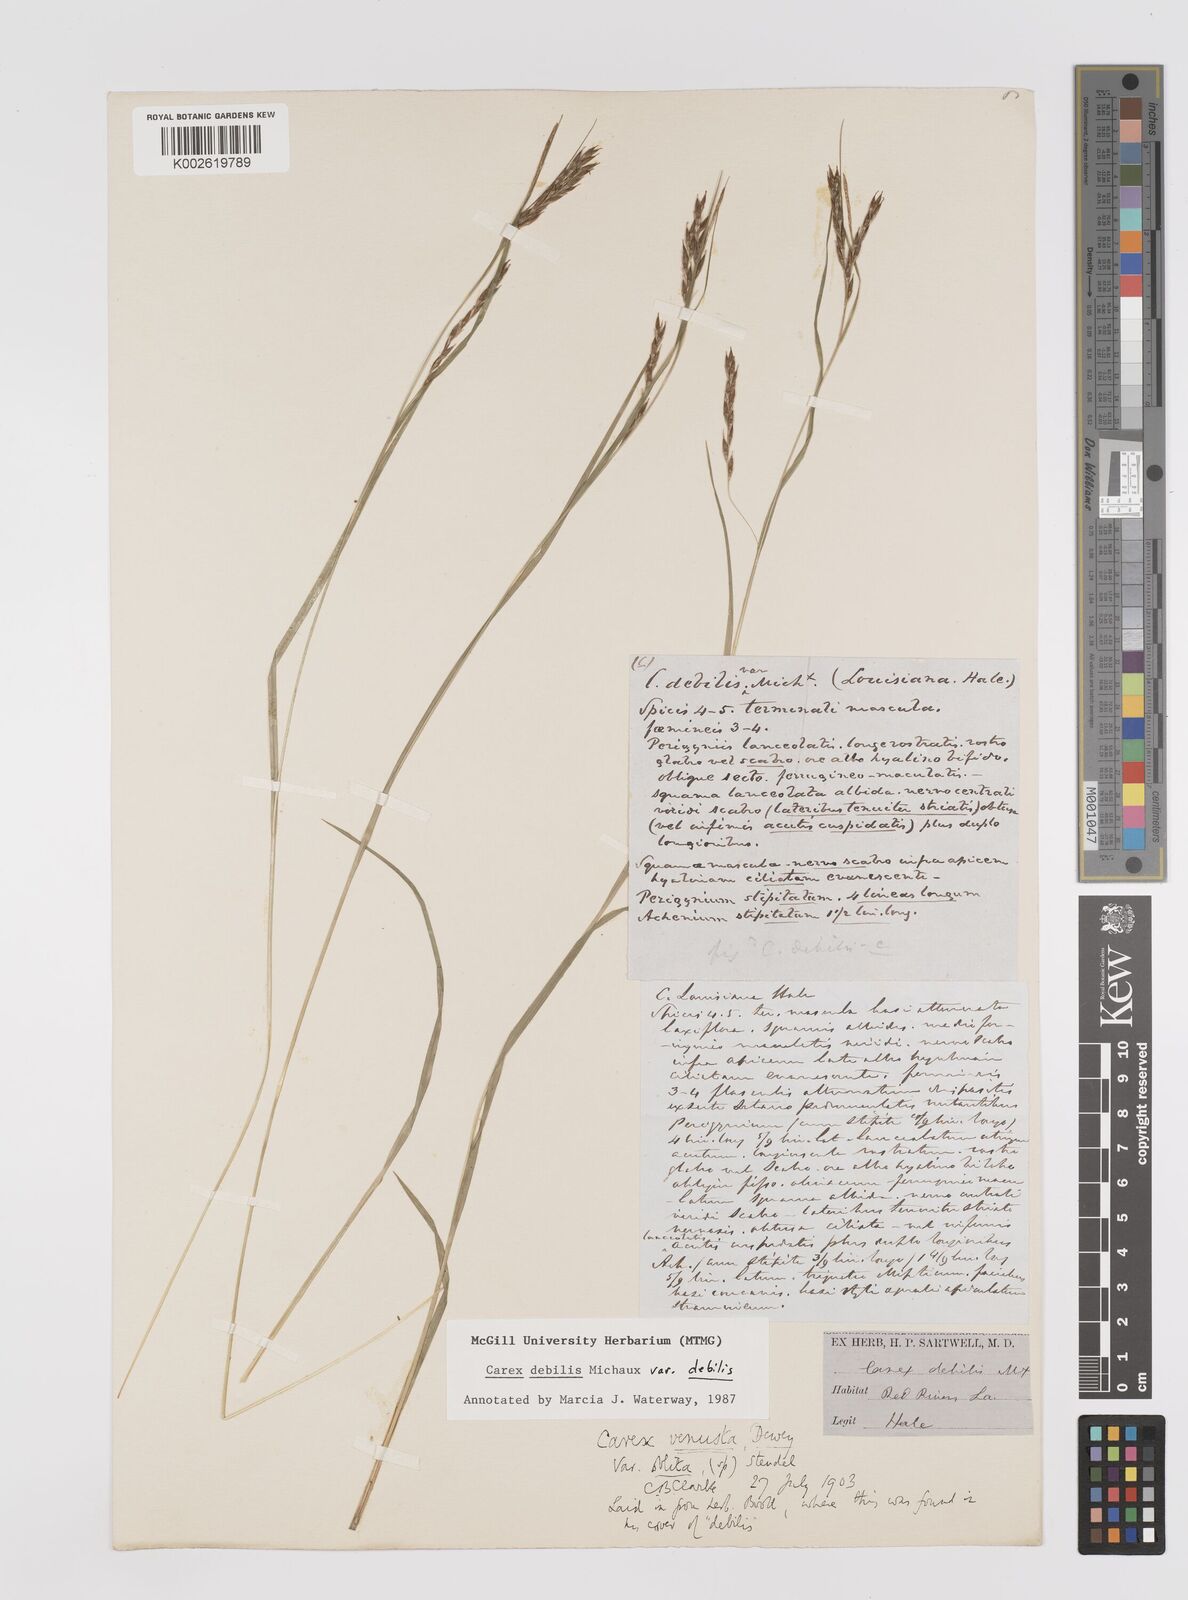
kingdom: Plantae
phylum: Tracheophyta
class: Liliopsida
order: Poales
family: Cyperaceae
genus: Carex
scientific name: Carex debilis
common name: White-edge sedge
